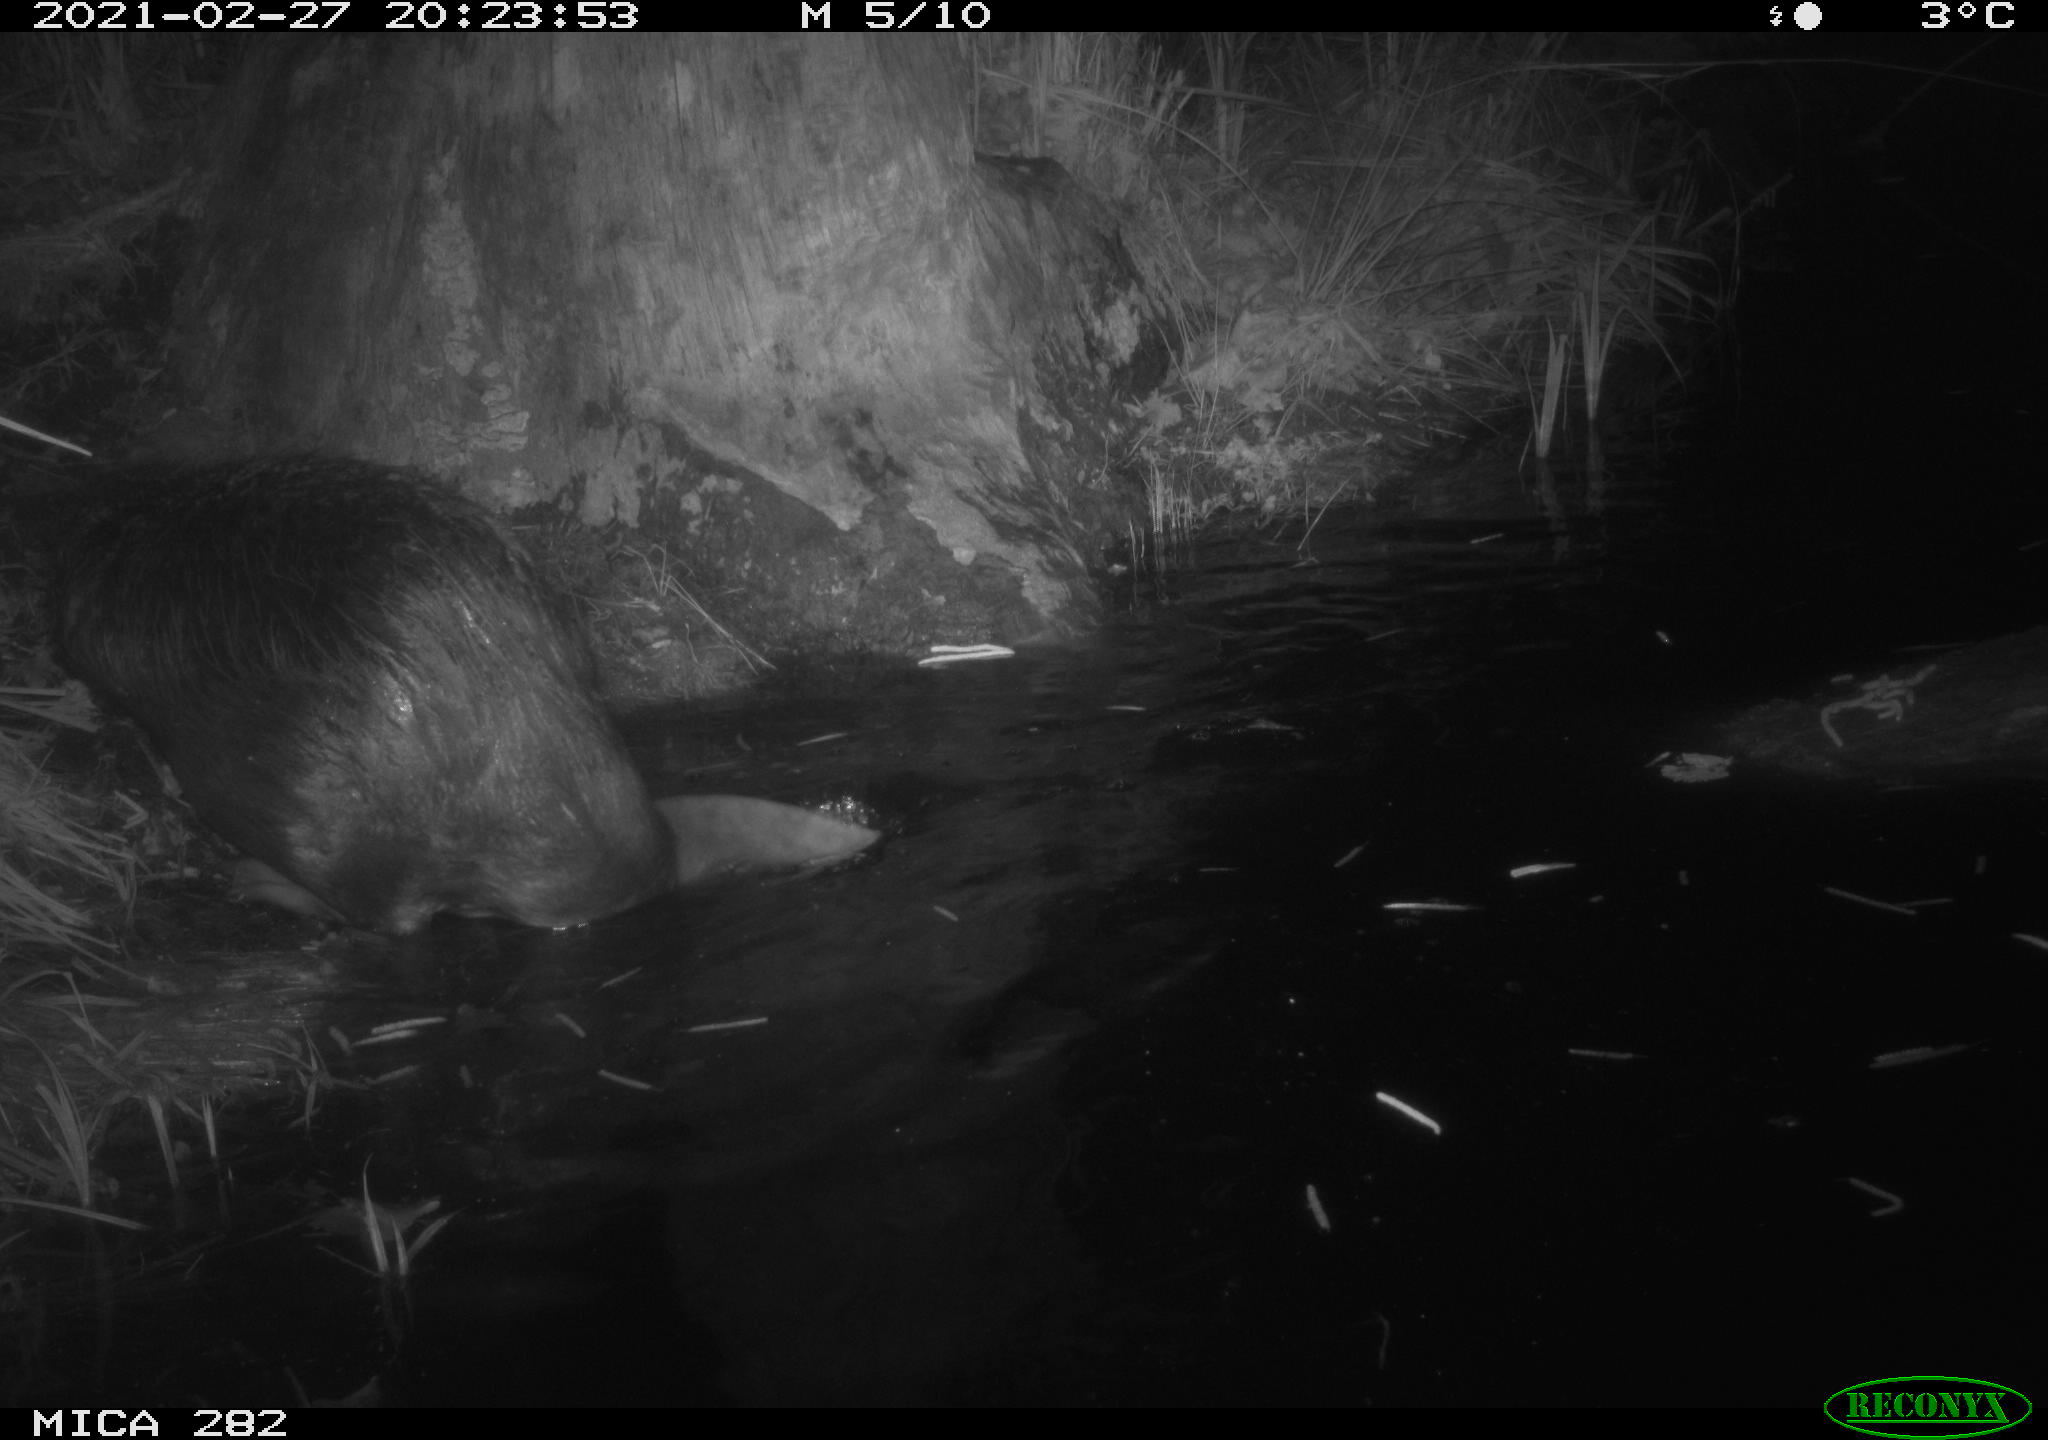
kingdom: Animalia
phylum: Chordata
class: Mammalia
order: Rodentia
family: Castoridae
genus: Castor
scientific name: Castor fiber
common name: Eurasian beaver
